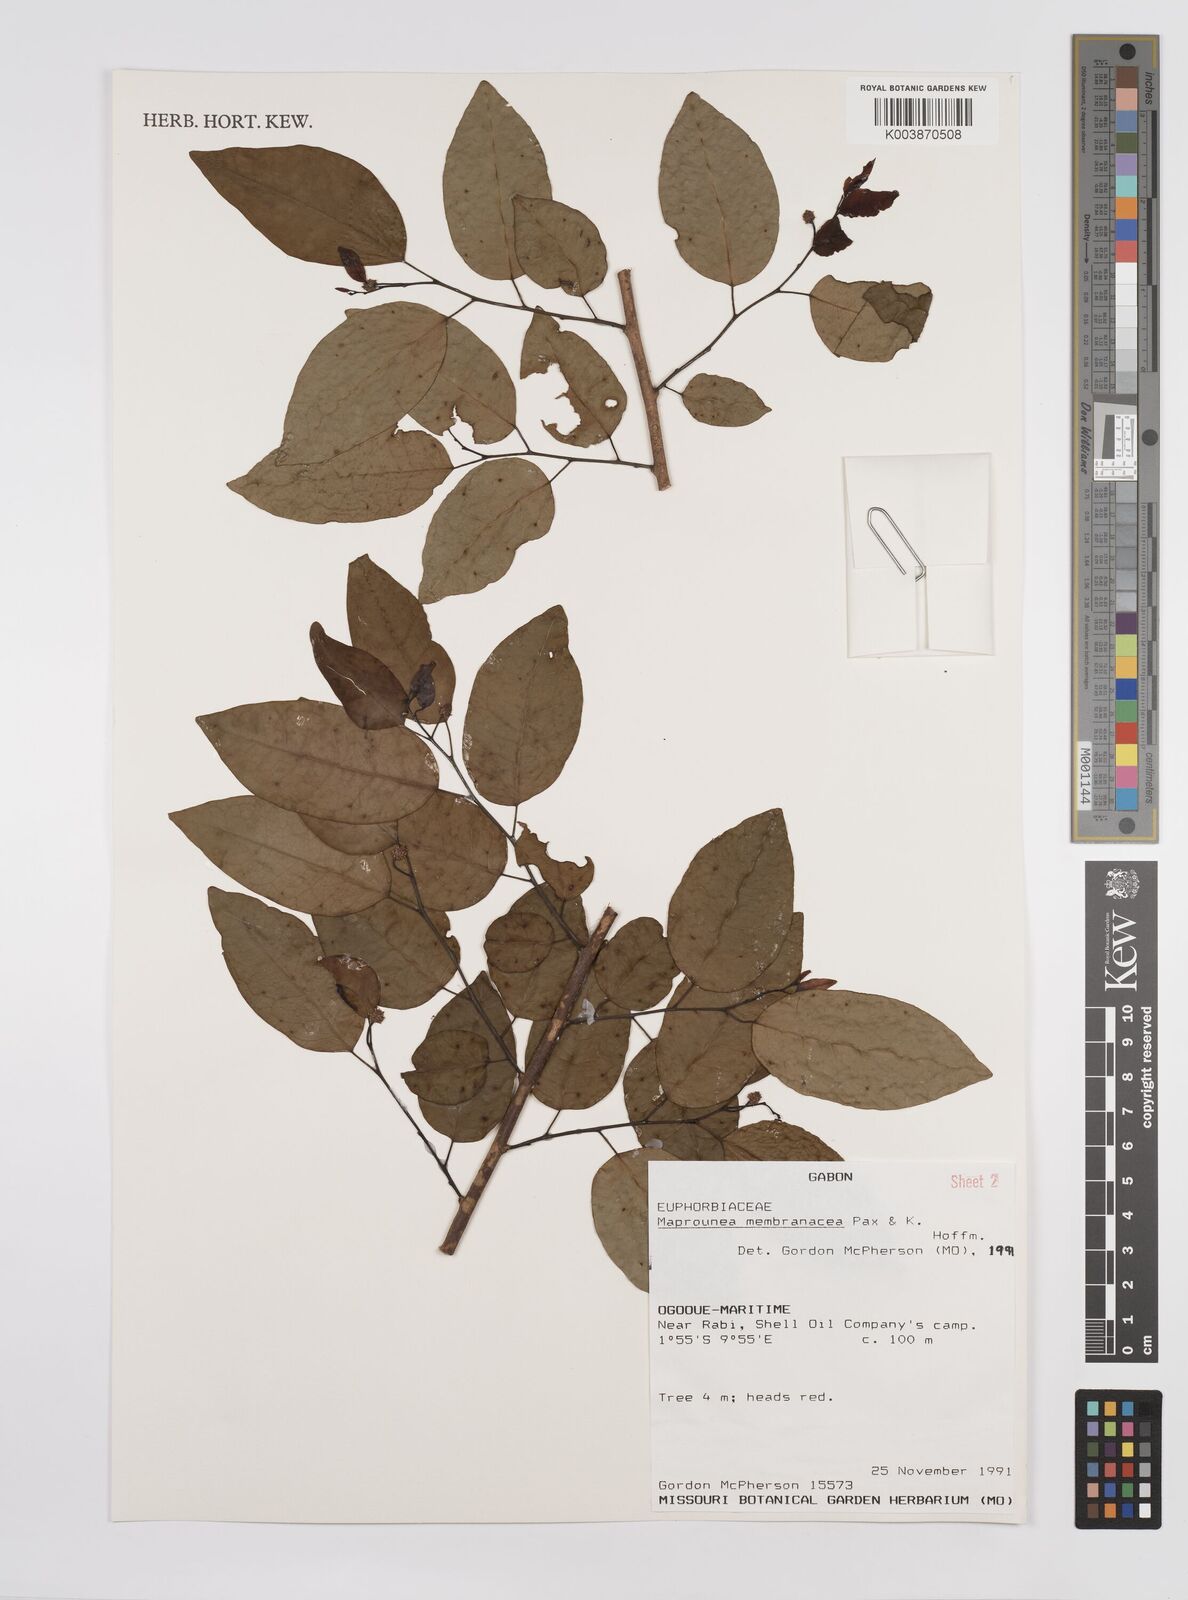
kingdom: Plantae
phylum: Tracheophyta
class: Magnoliopsida
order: Malpighiales
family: Euphorbiaceae
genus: Maprounea
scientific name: Maprounea membranacea
